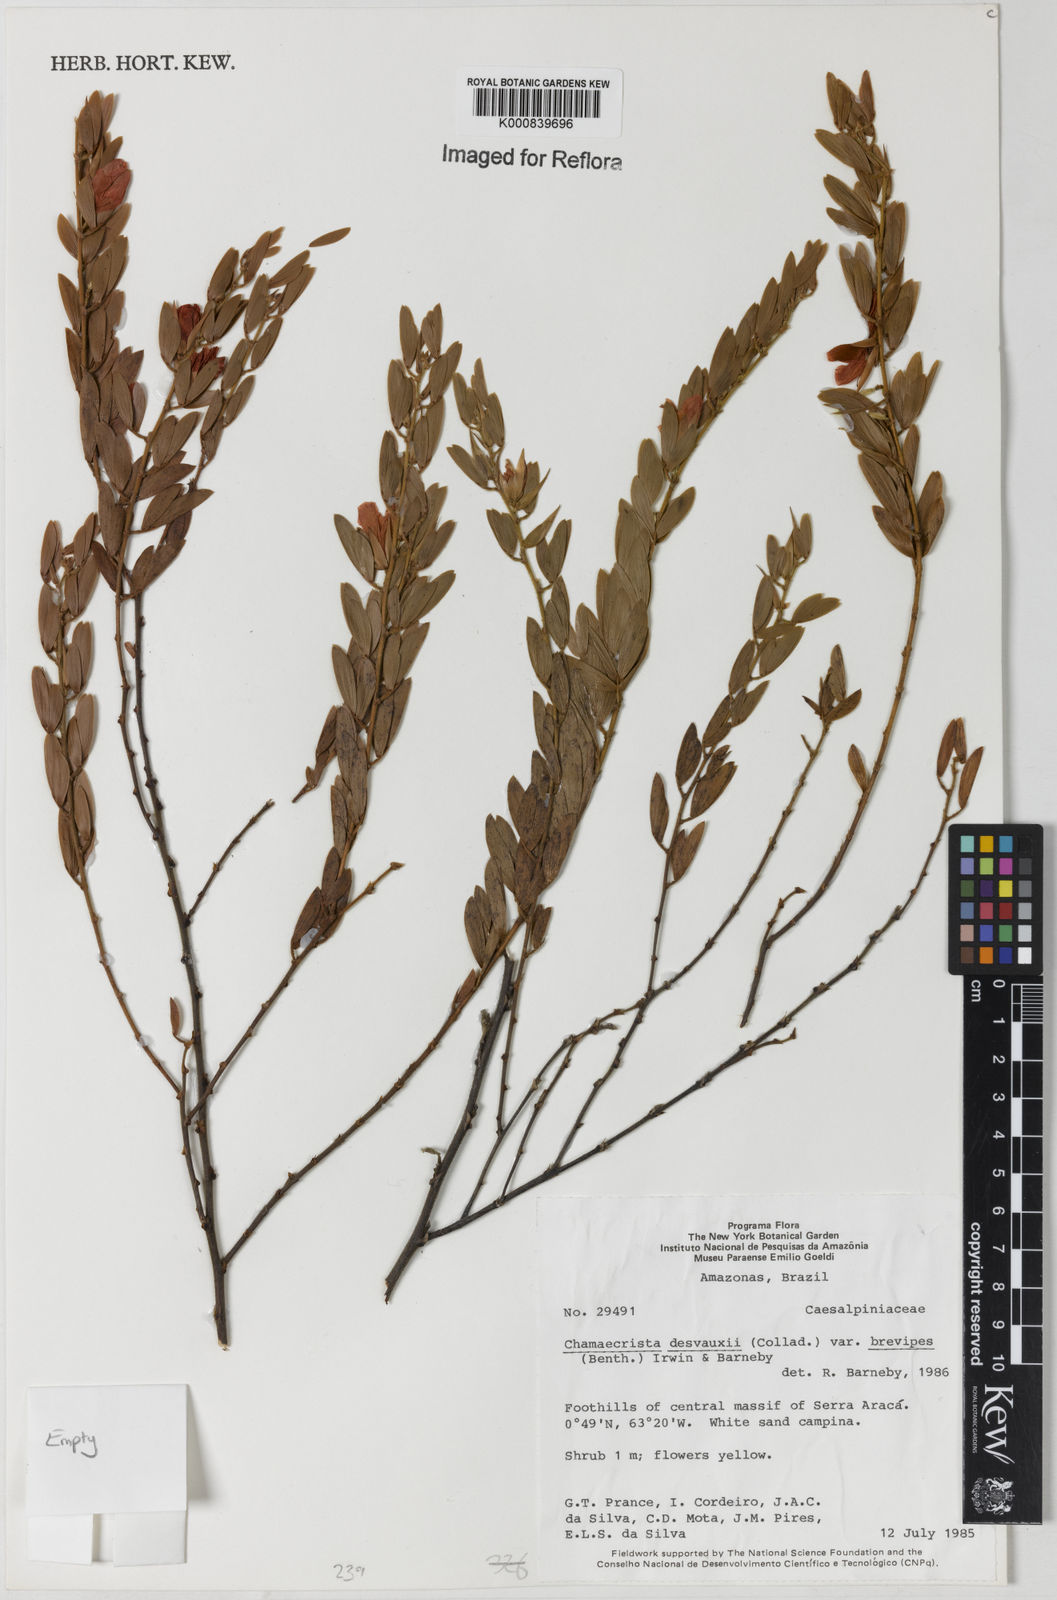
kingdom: Plantae
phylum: Tracheophyta
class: Magnoliopsida
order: Fabales
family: Fabaceae
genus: Chamaecrista
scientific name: Chamaecrista desvauxii
